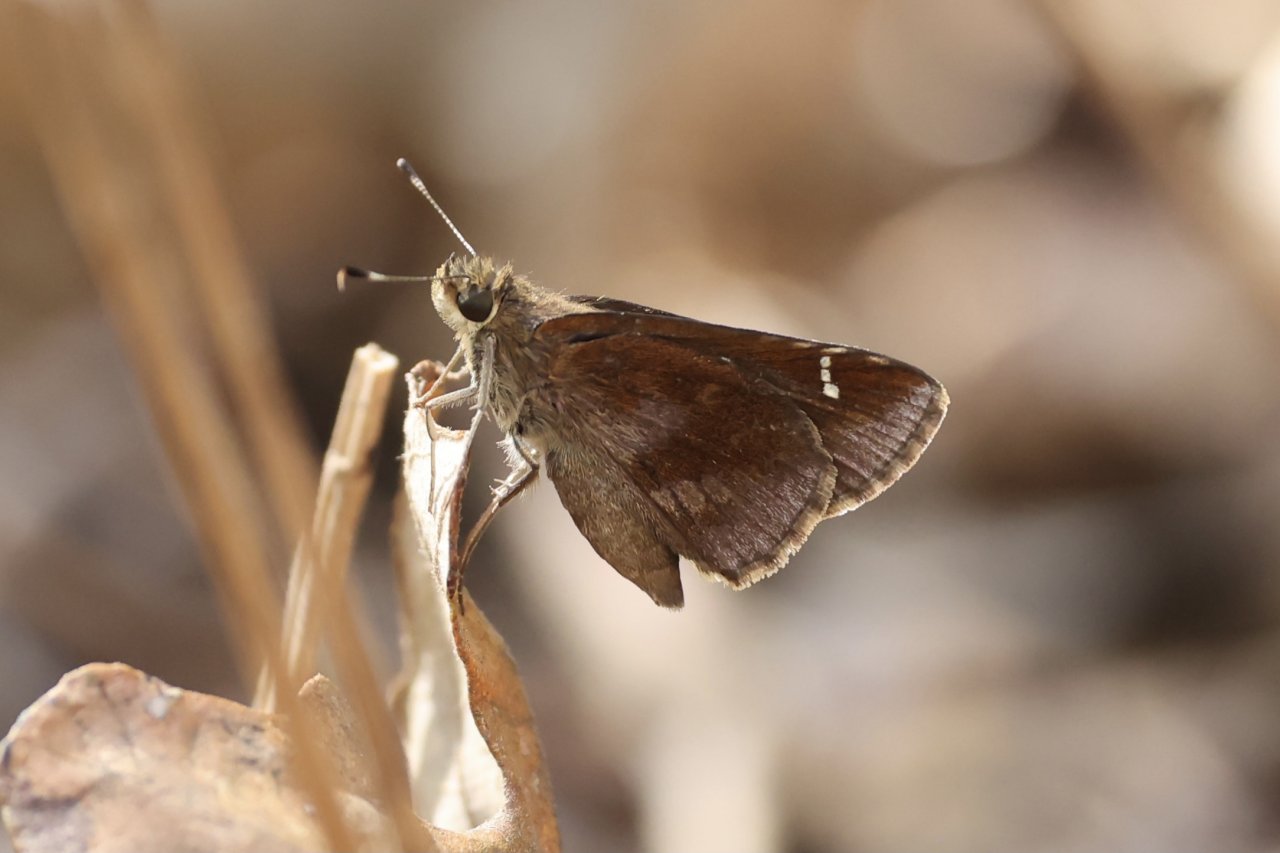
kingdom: Animalia
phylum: Arthropoda
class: Insecta
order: Lepidoptera
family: Hesperiidae
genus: Lerema
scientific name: Lerema accius
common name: Clouded Skipper
